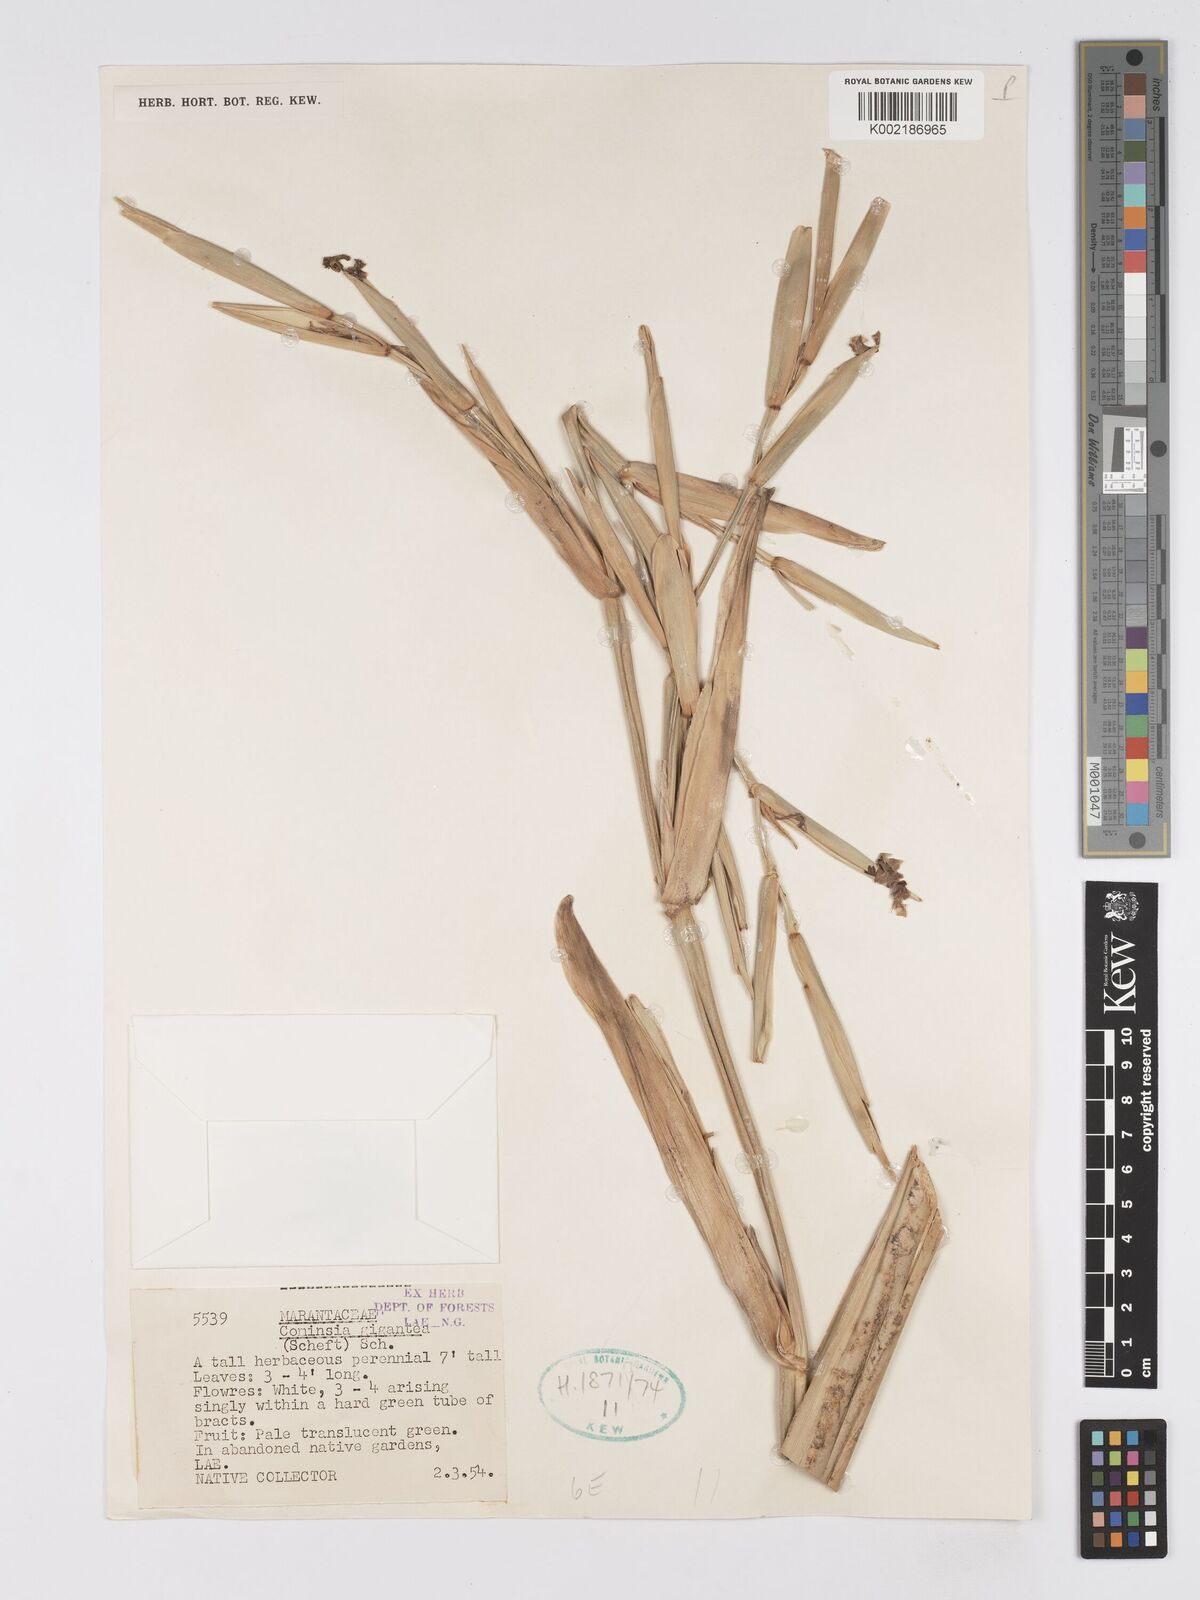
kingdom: Plantae
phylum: Tracheophyta
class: Liliopsida
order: Zingiberales
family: Marantaceae
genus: Phrynium
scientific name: Phrynium giganteum
